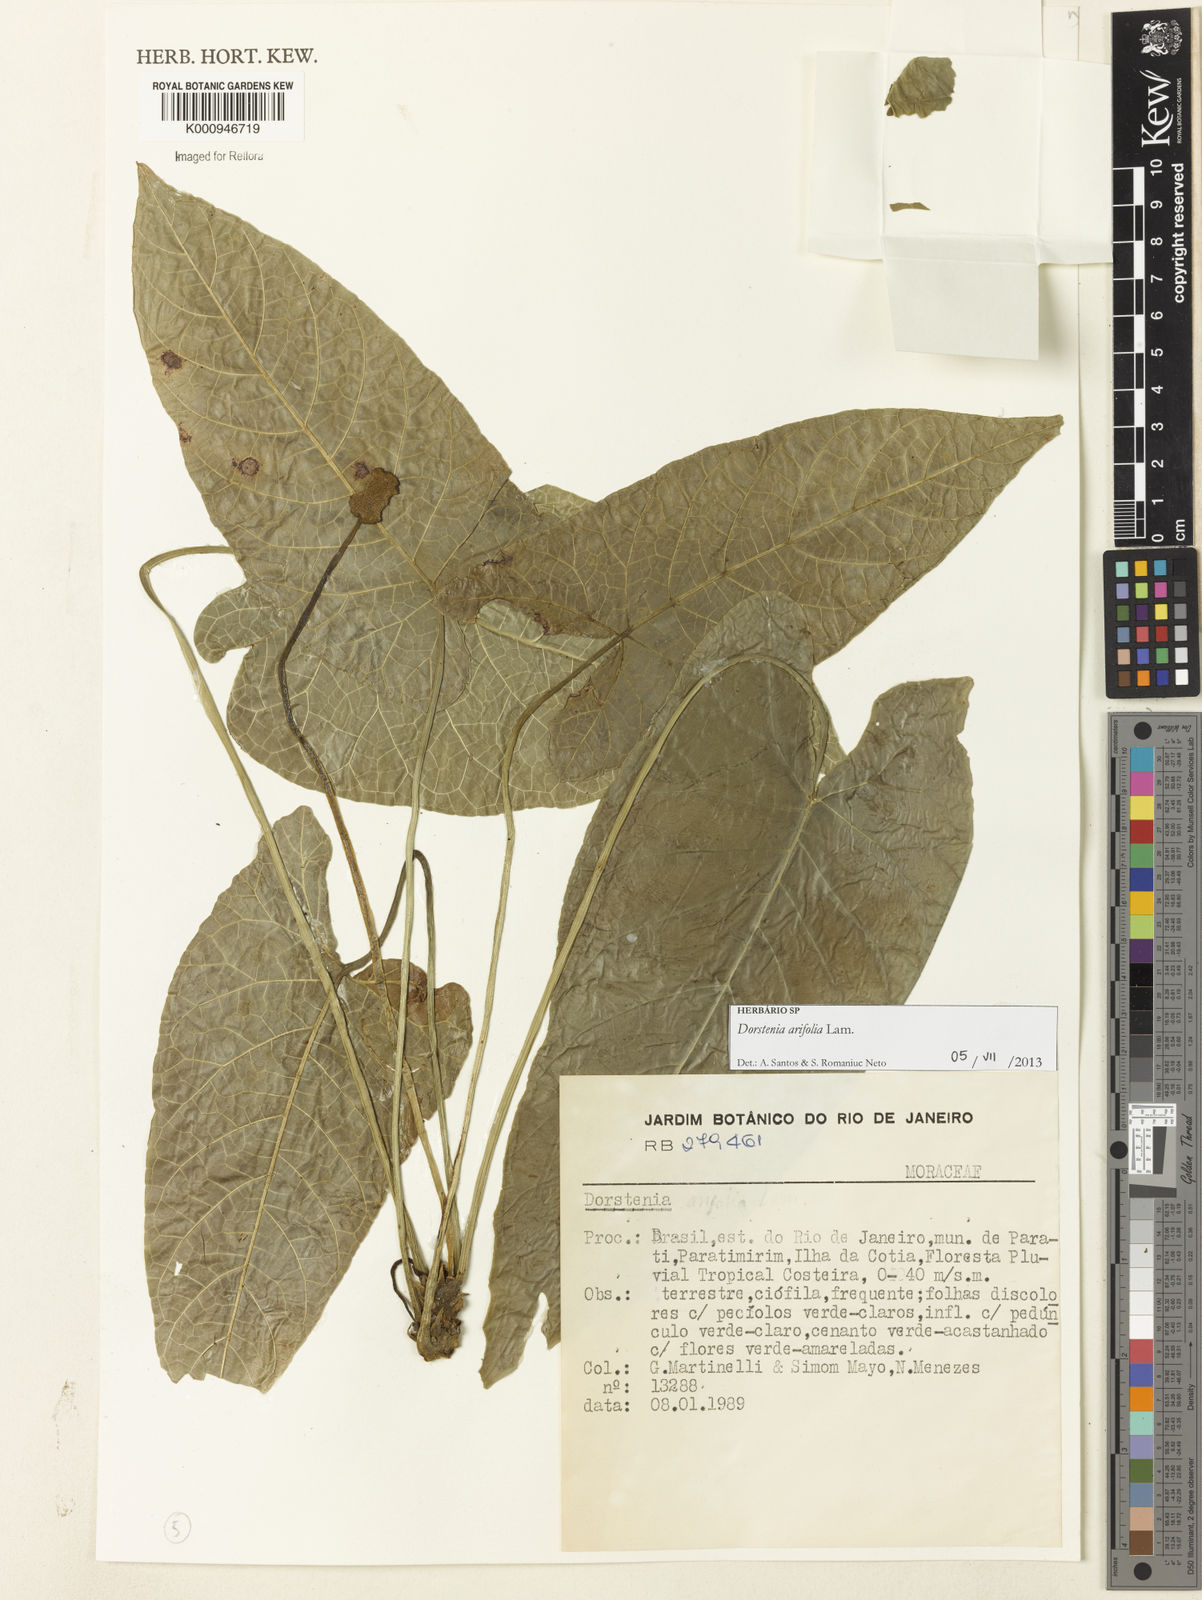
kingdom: Plantae
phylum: Tracheophyta
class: Magnoliopsida
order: Rosales
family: Moraceae
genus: Dorstenia
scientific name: Dorstenia arifolia
